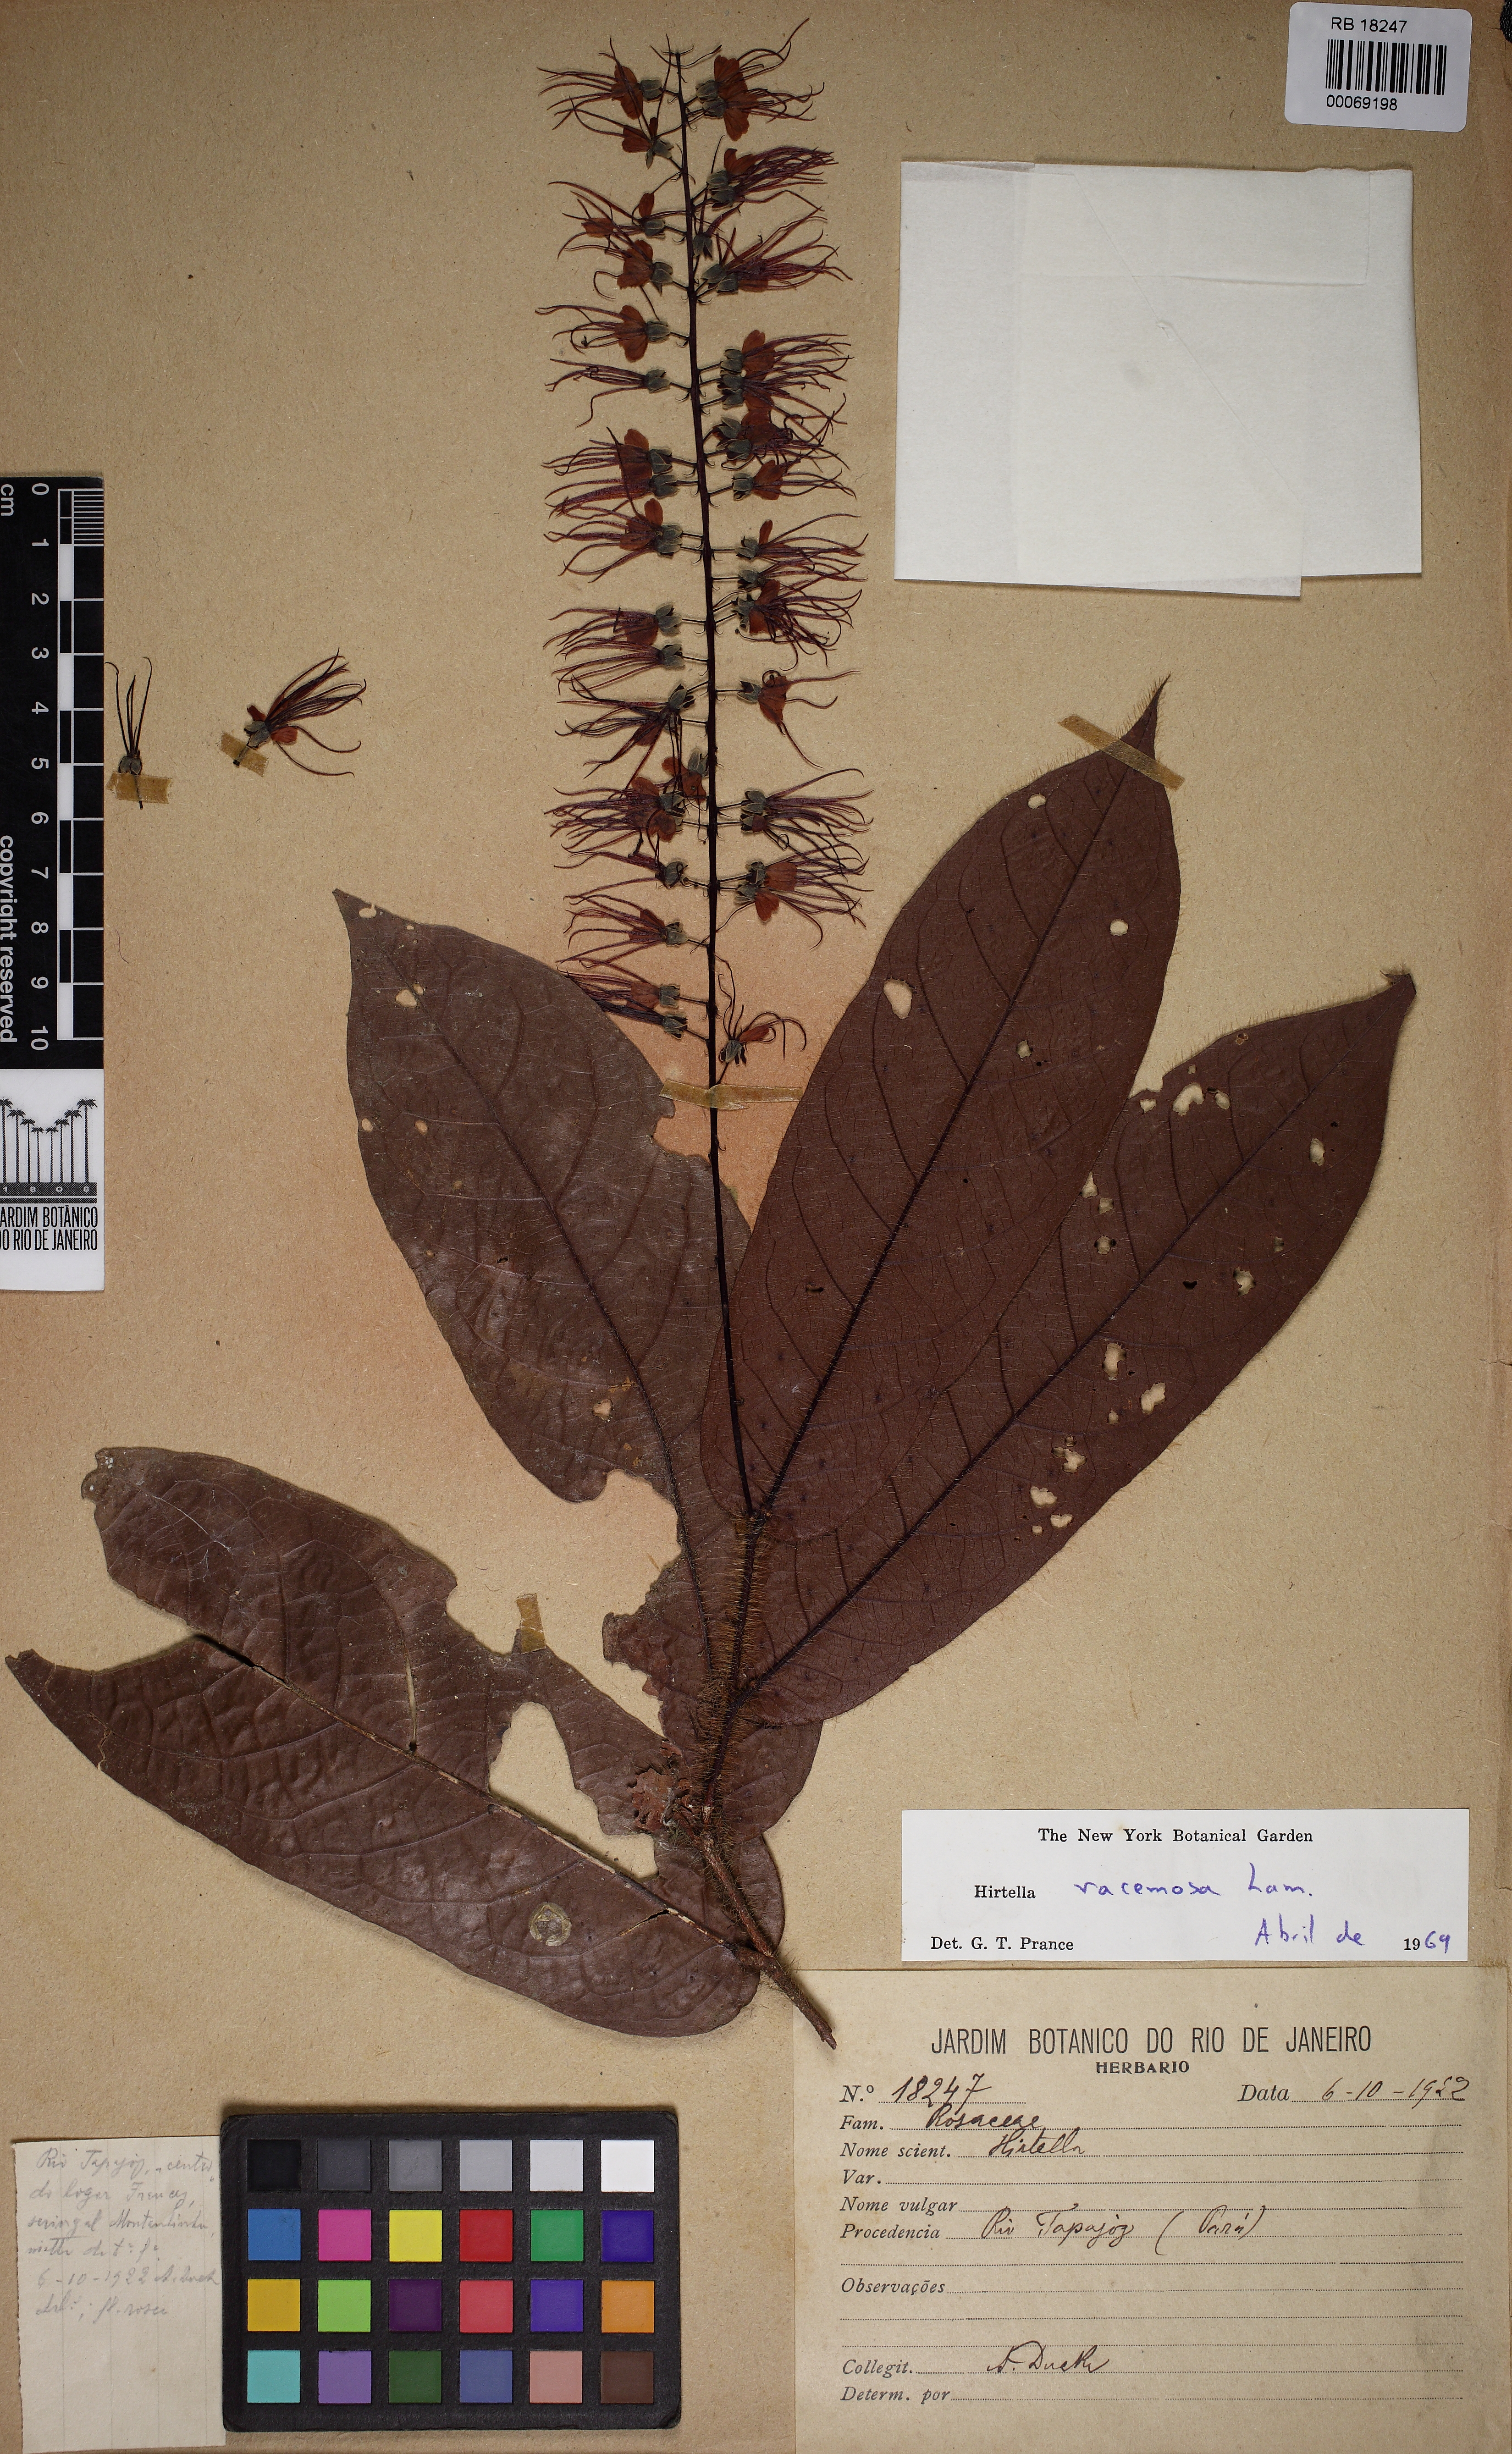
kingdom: Plantae
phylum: Tracheophyta
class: Magnoliopsida
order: Malpighiales
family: Chrysobalanaceae
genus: Hirtella
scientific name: Hirtella racemosa
